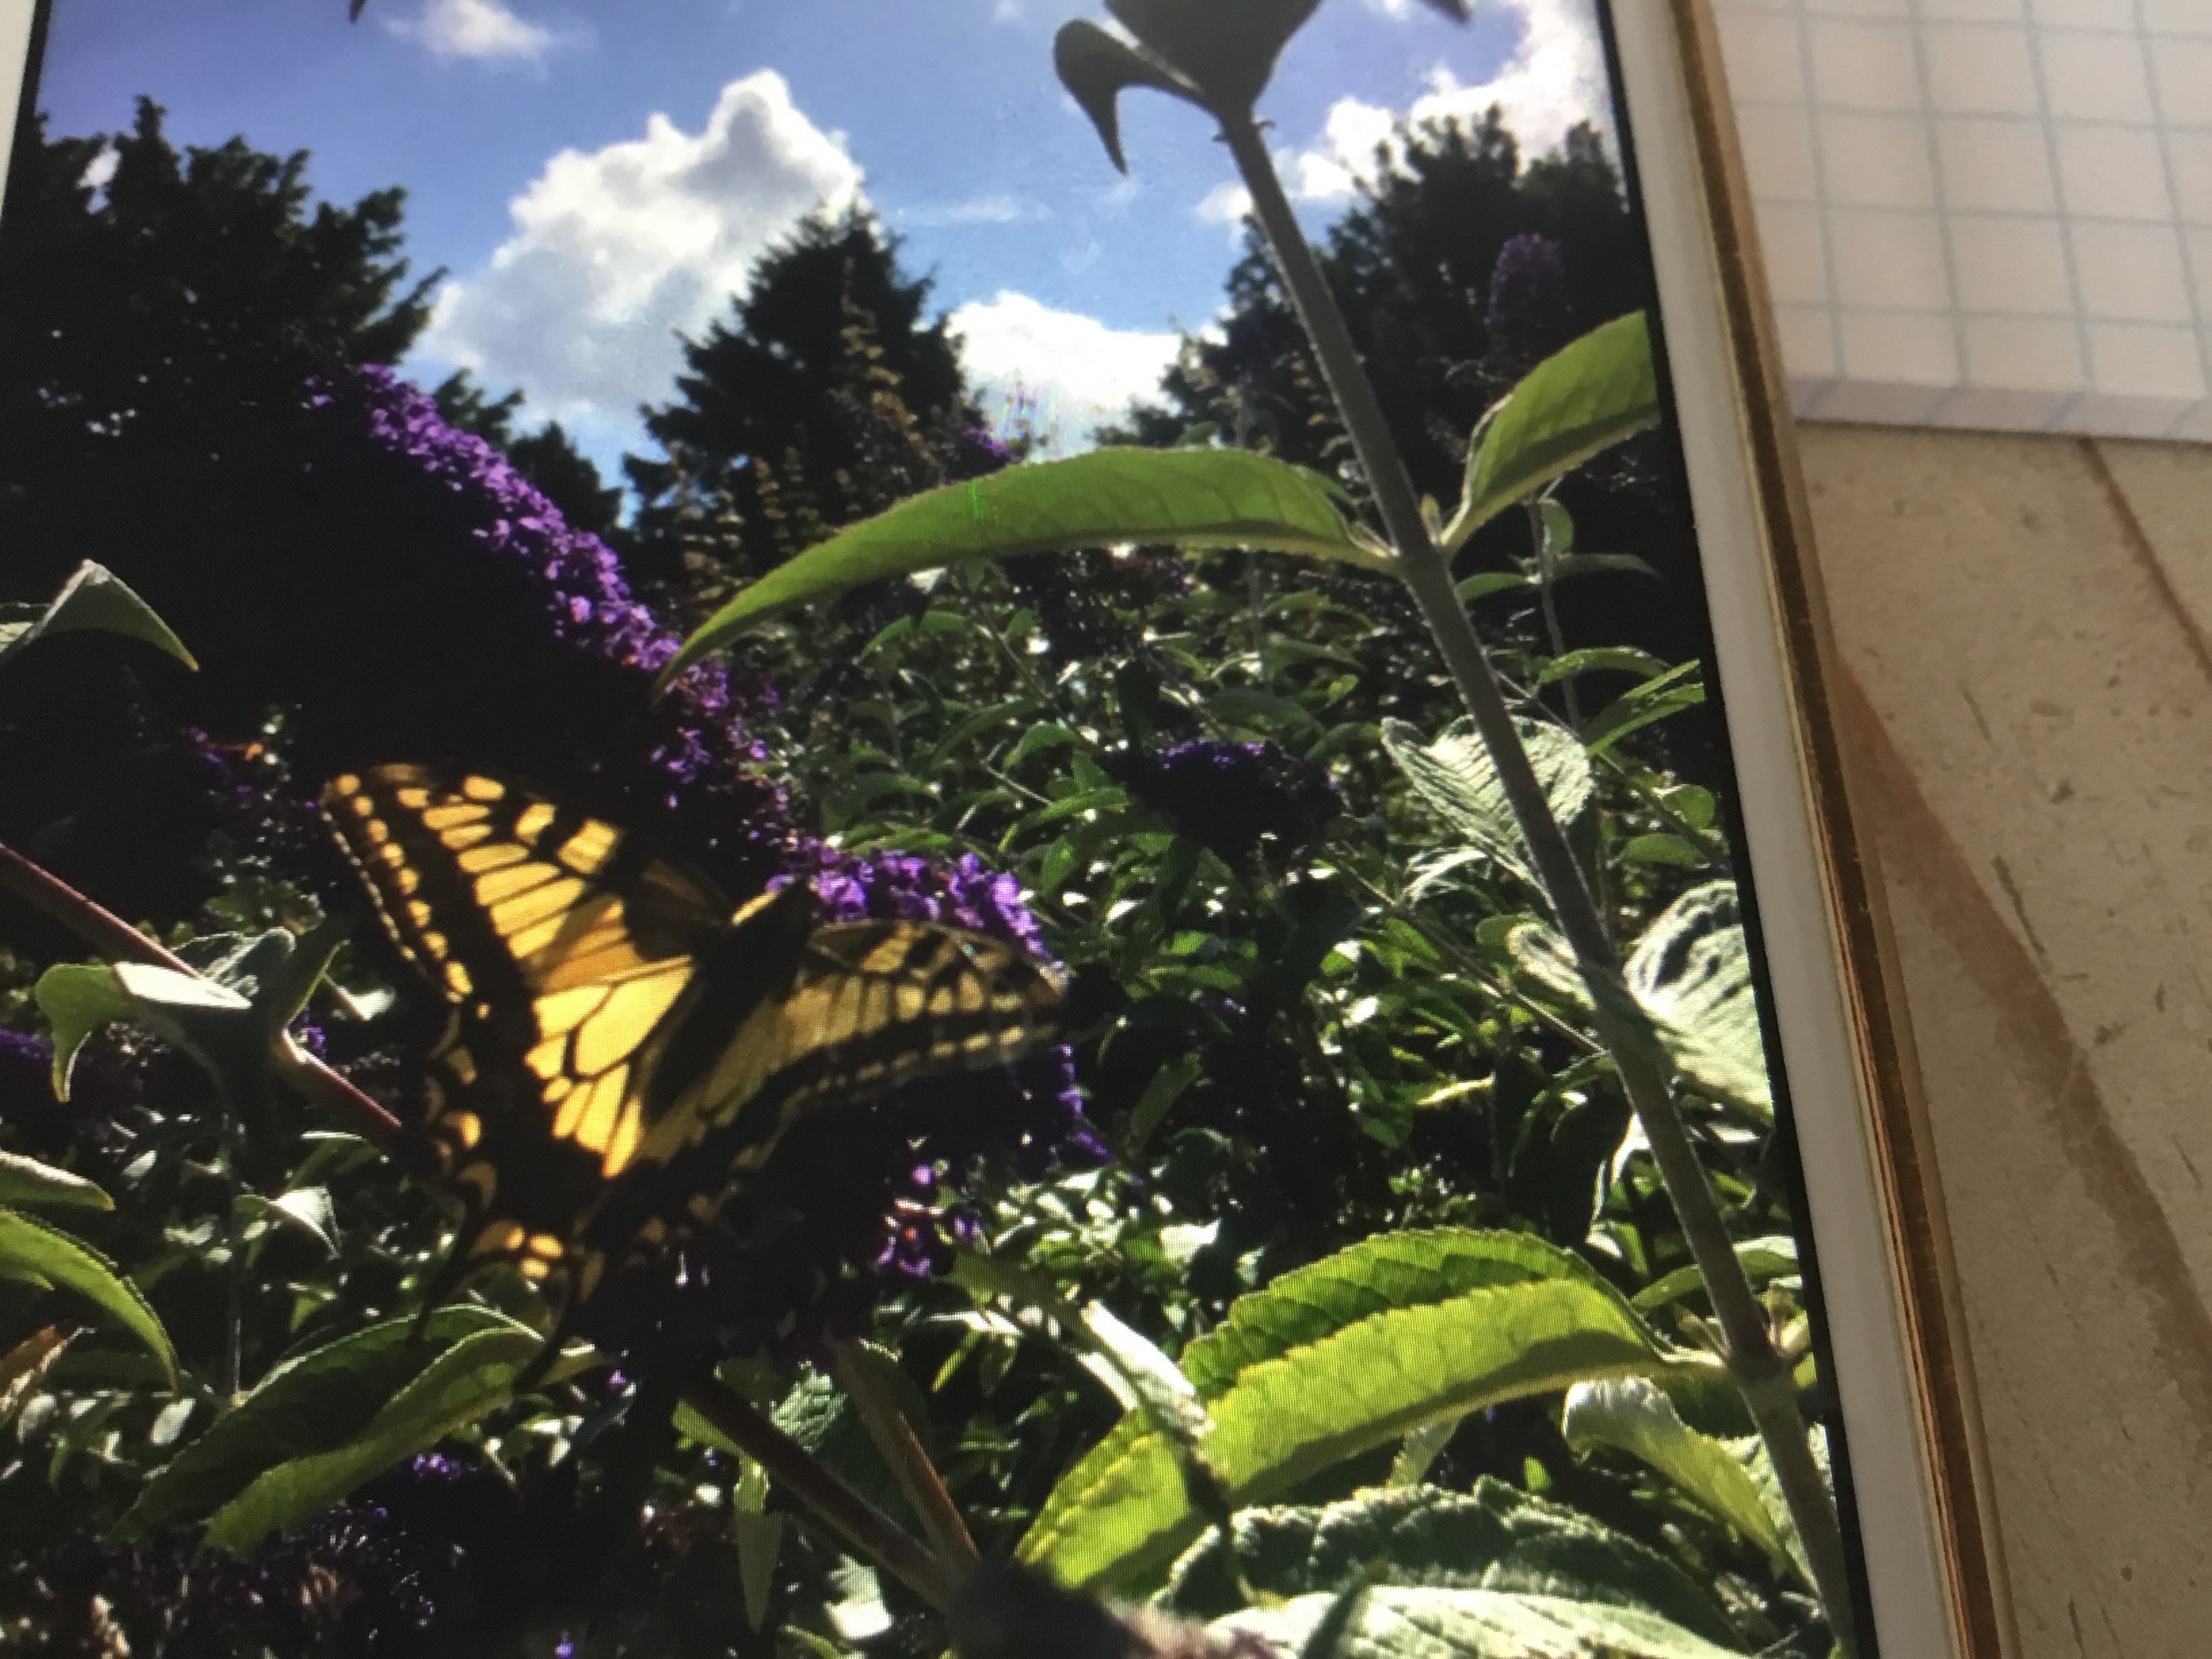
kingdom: Animalia
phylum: Arthropoda
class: Insecta
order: Lepidoptera
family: Papilionidae
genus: Papilio
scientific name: Papilio machaon
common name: Svalehale
